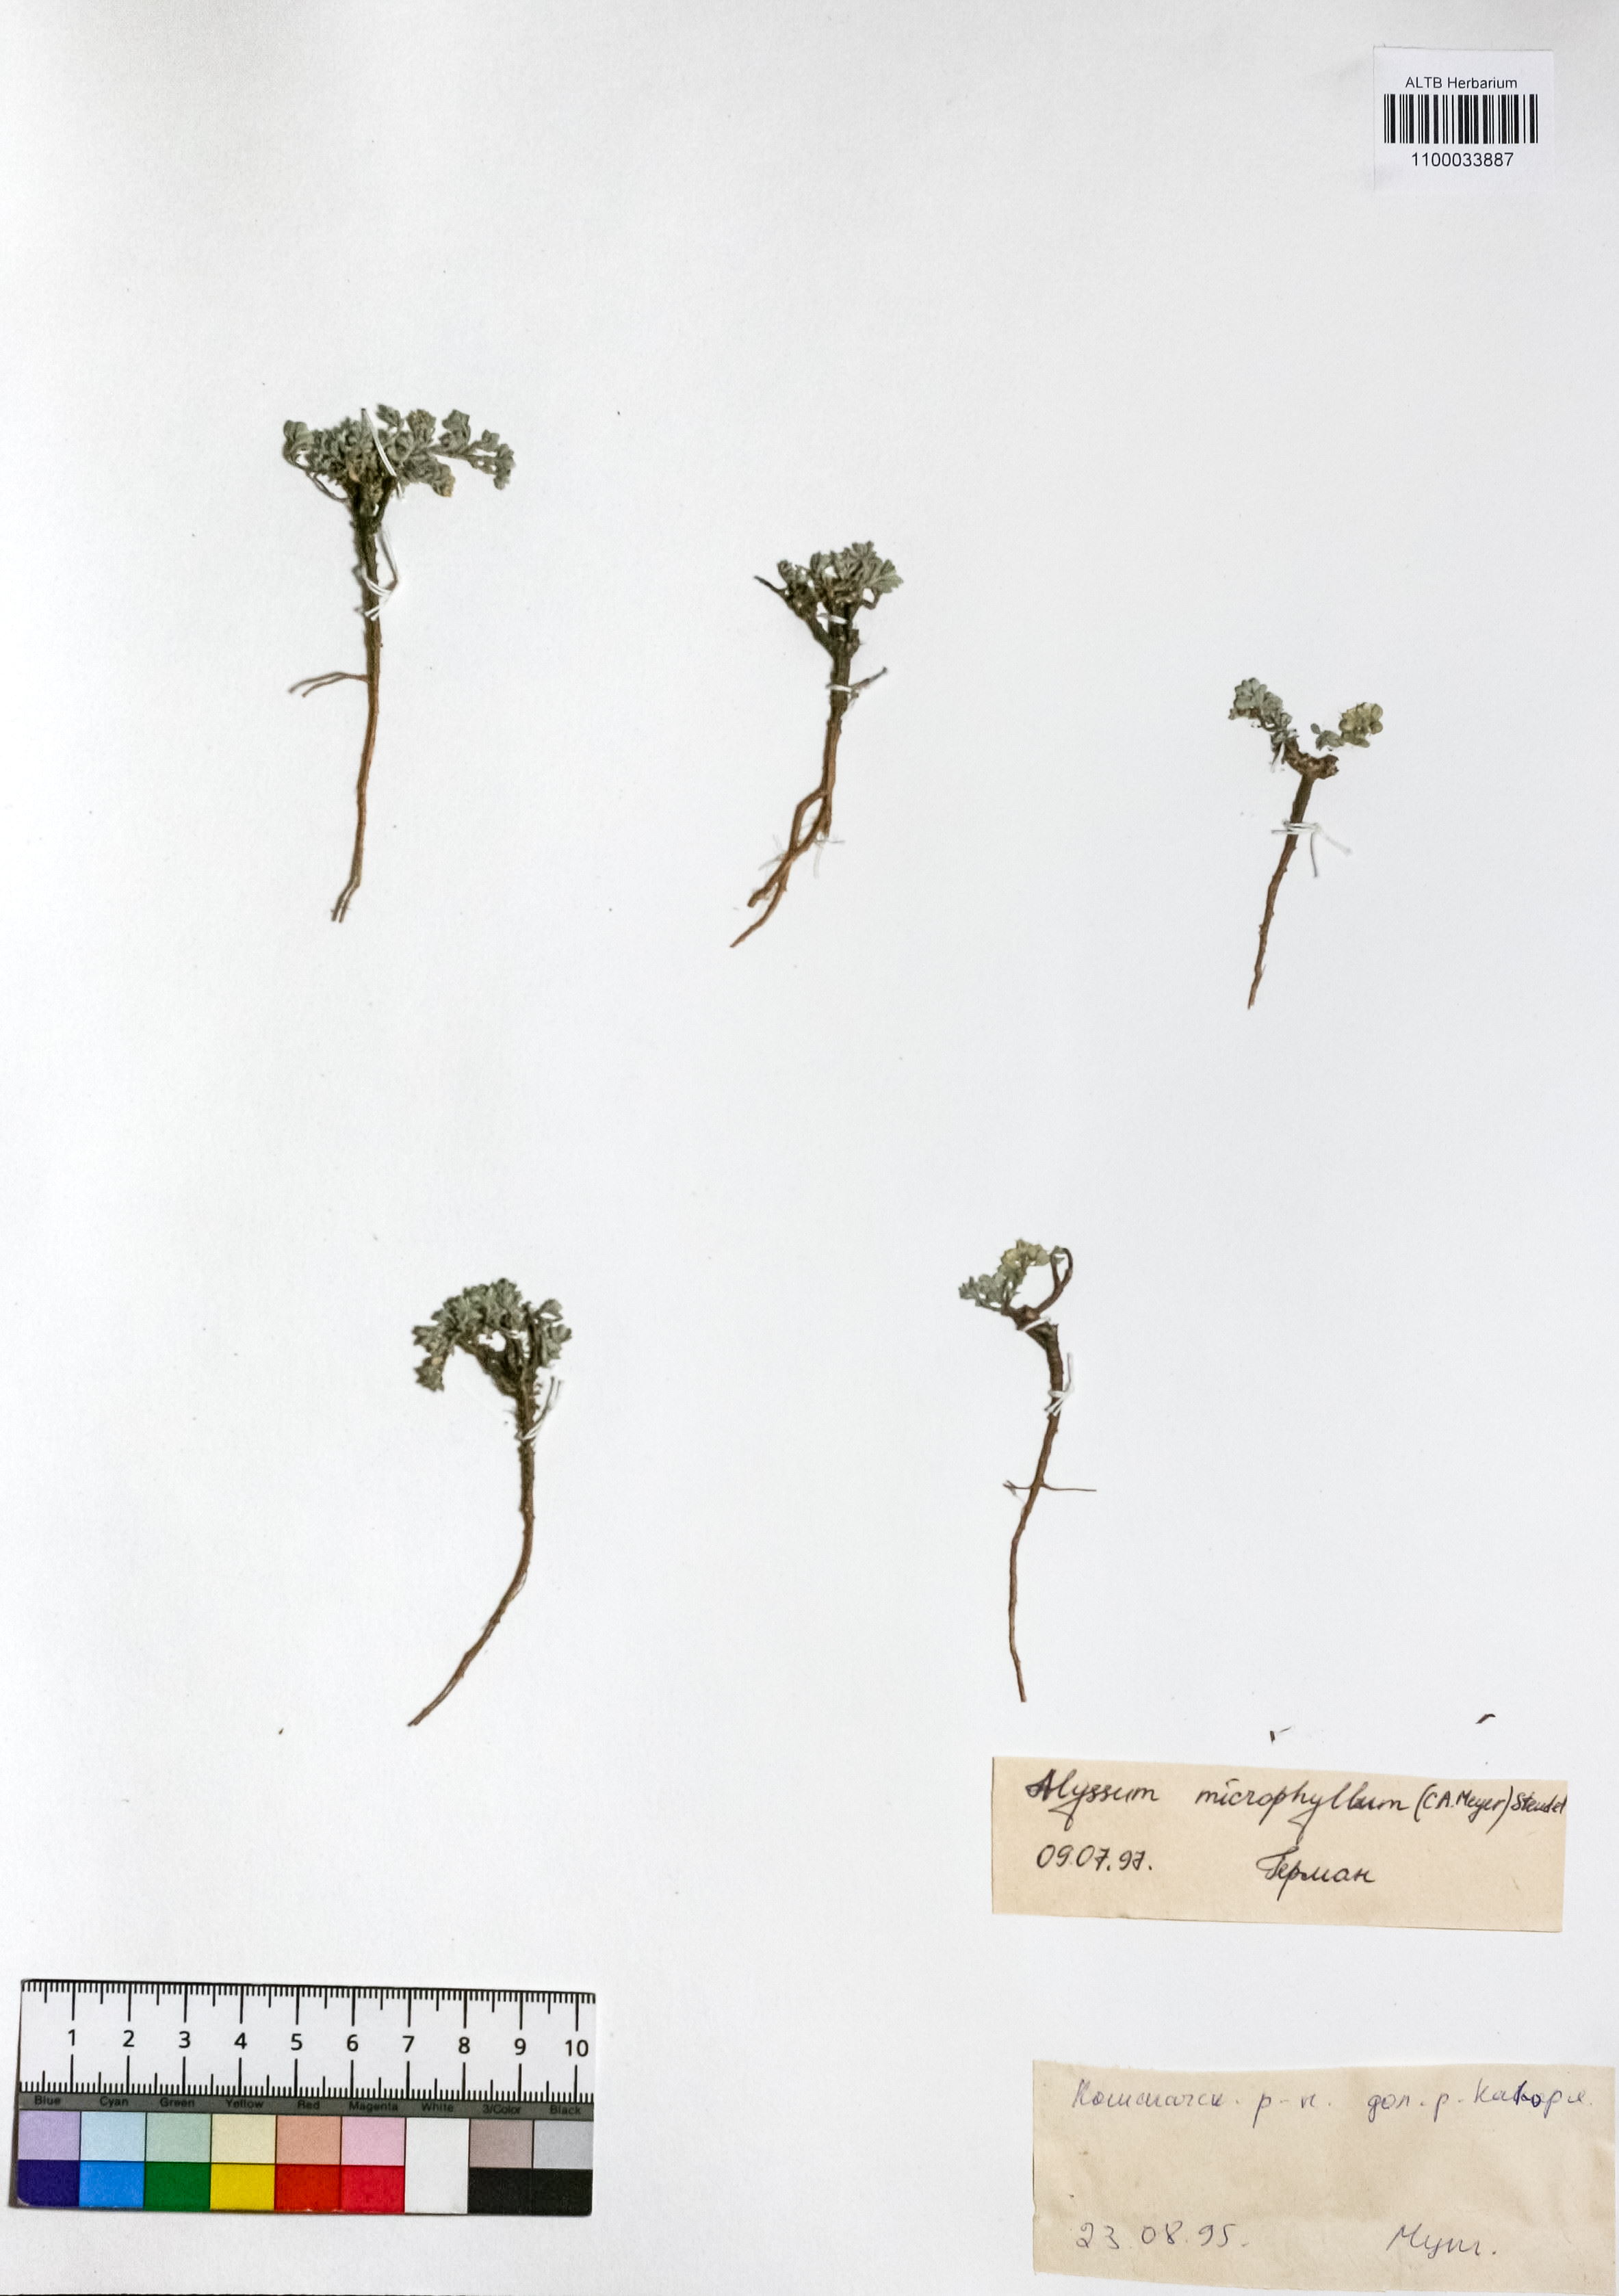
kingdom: Plantae
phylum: Tracheophyta
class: Magnoliopsida
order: Brassicales
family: Brassicaceae
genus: Odontarrhena
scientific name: Odontarrhena obovata
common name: American alyssum
